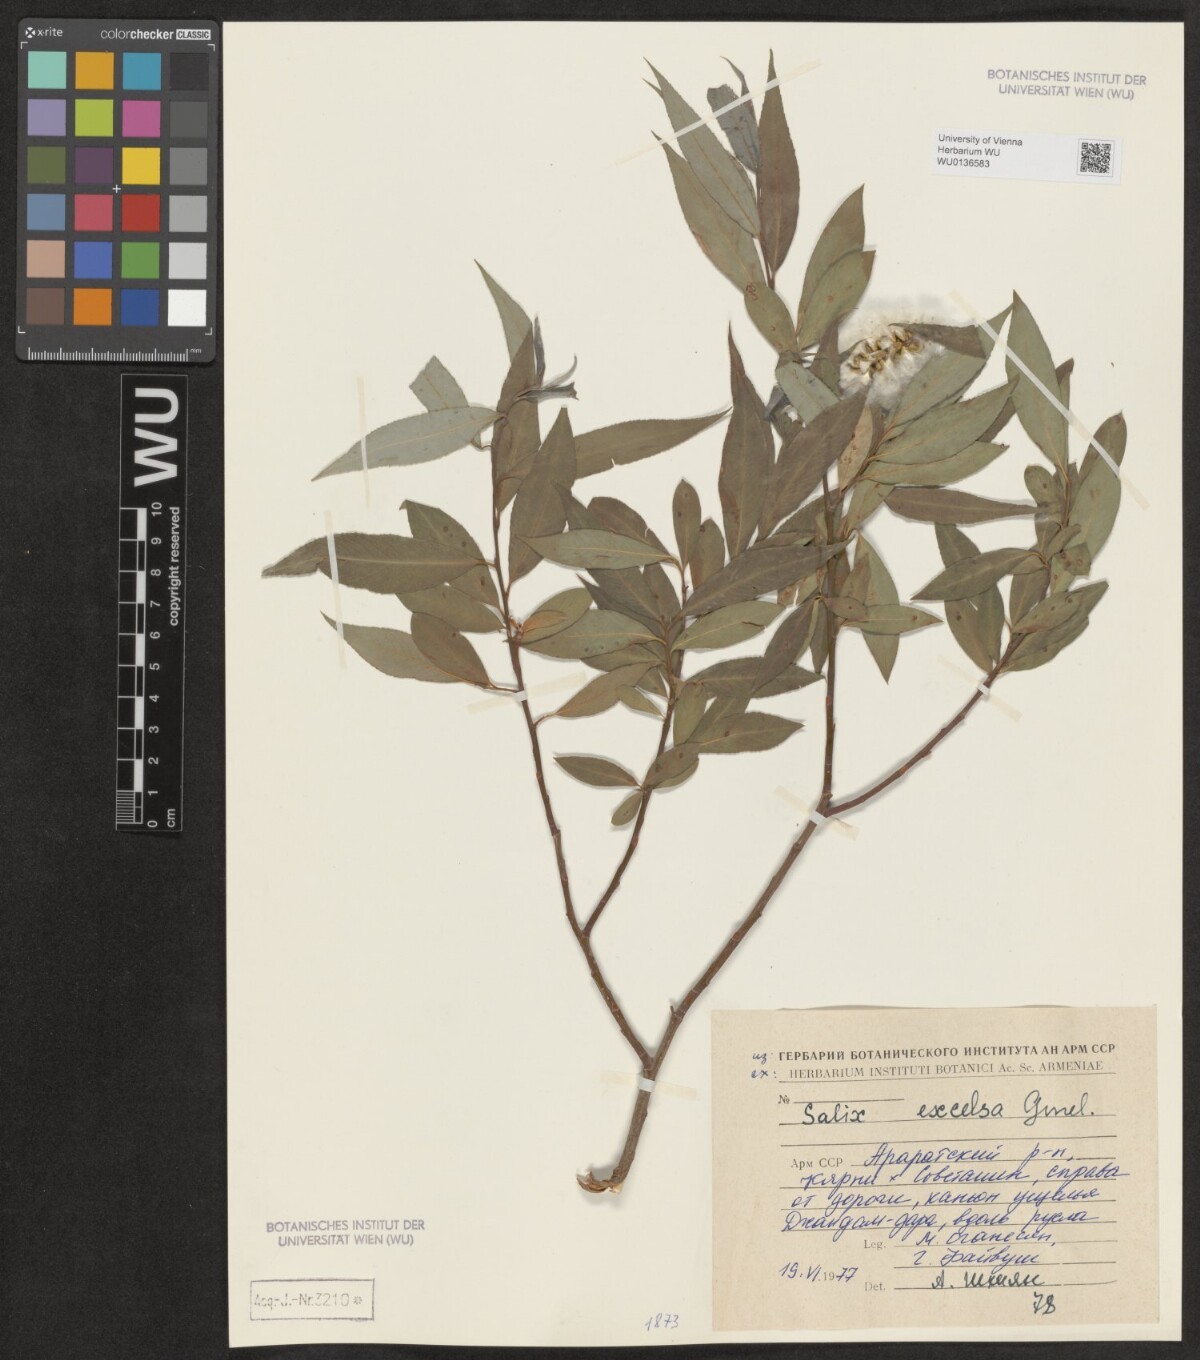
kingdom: Plantae
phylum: Tracheophyta
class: Magnoliopsida
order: Malpighiales
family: Salicaceae
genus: Salix
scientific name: Salix excelsa
